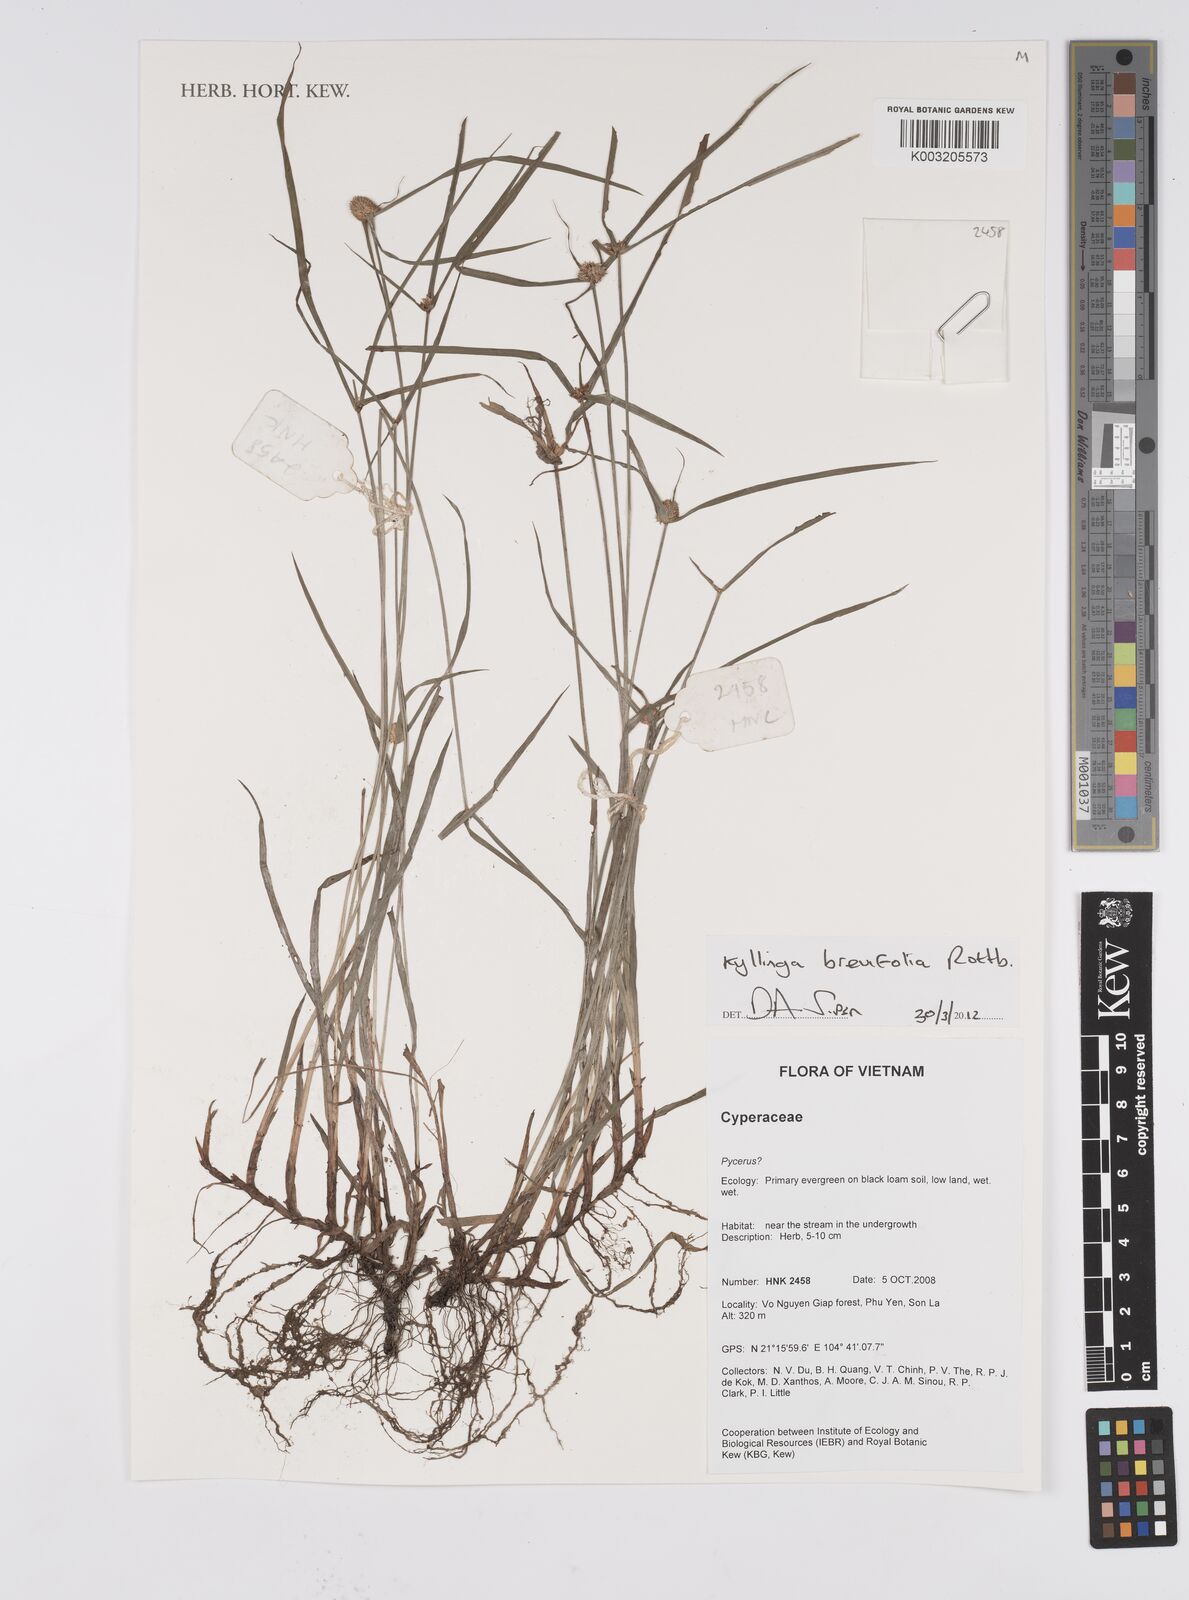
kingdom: Plantae
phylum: Tracheophyta
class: Liliopsida
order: Poales
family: Cyperaceae
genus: Cyperus
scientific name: Cyperus brevifolius
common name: Globe kyllinga
